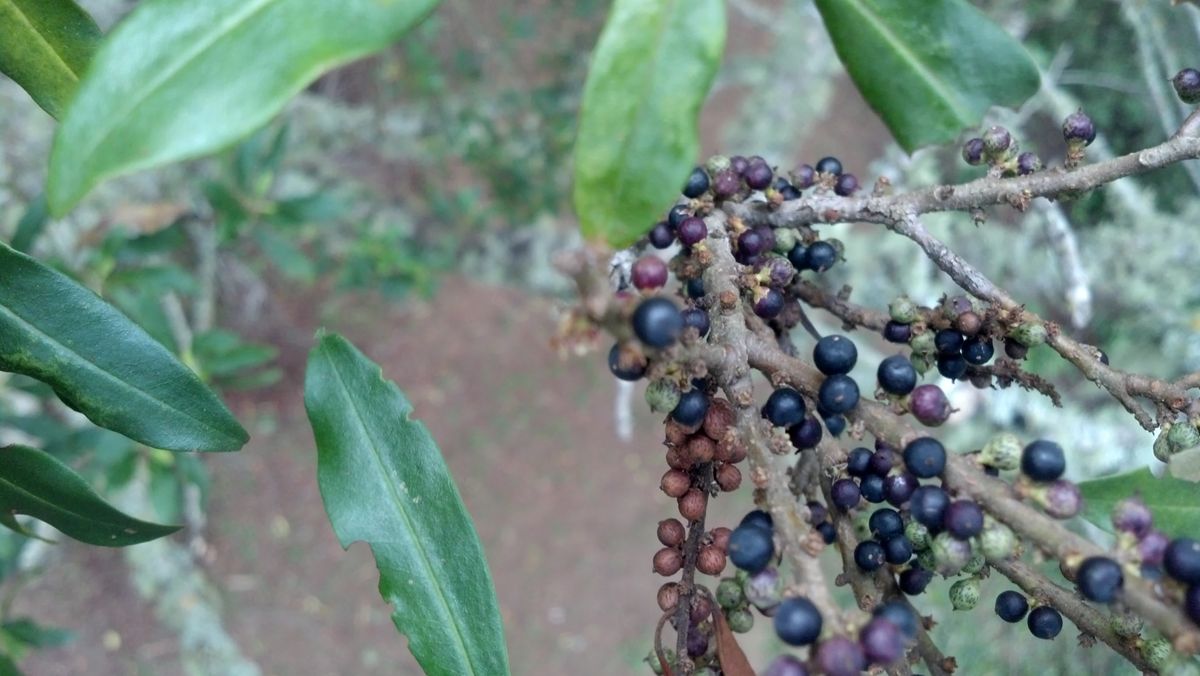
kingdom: Plantae
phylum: Tracheophyta
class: Magnoliopsida
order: Ericales
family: Primulaceae
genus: Myrsine
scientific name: Myrsine coriacea
